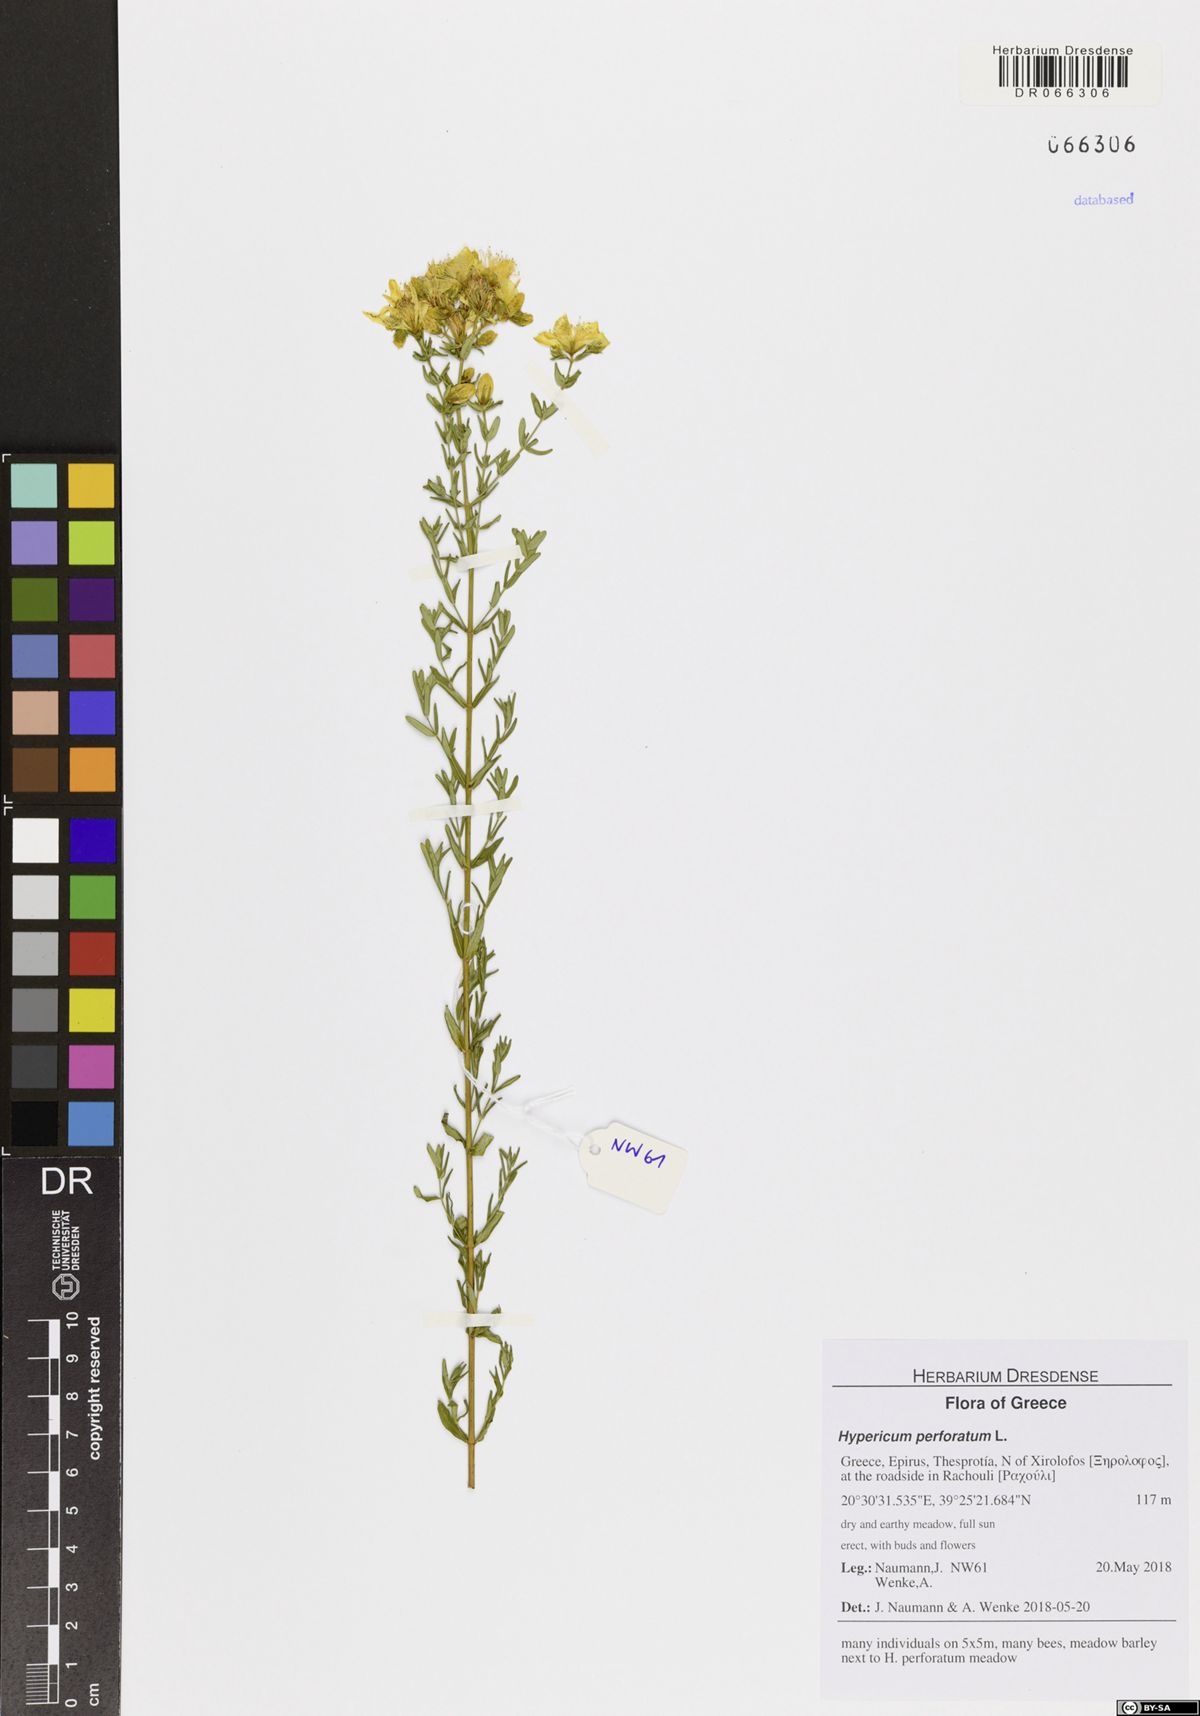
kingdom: Plantae
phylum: Tracheophyta
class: Magnoliopsida
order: Malpighiales
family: Hypericaceae
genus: Hypericum
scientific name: Hypericum perforatum
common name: Common st. johnswort
